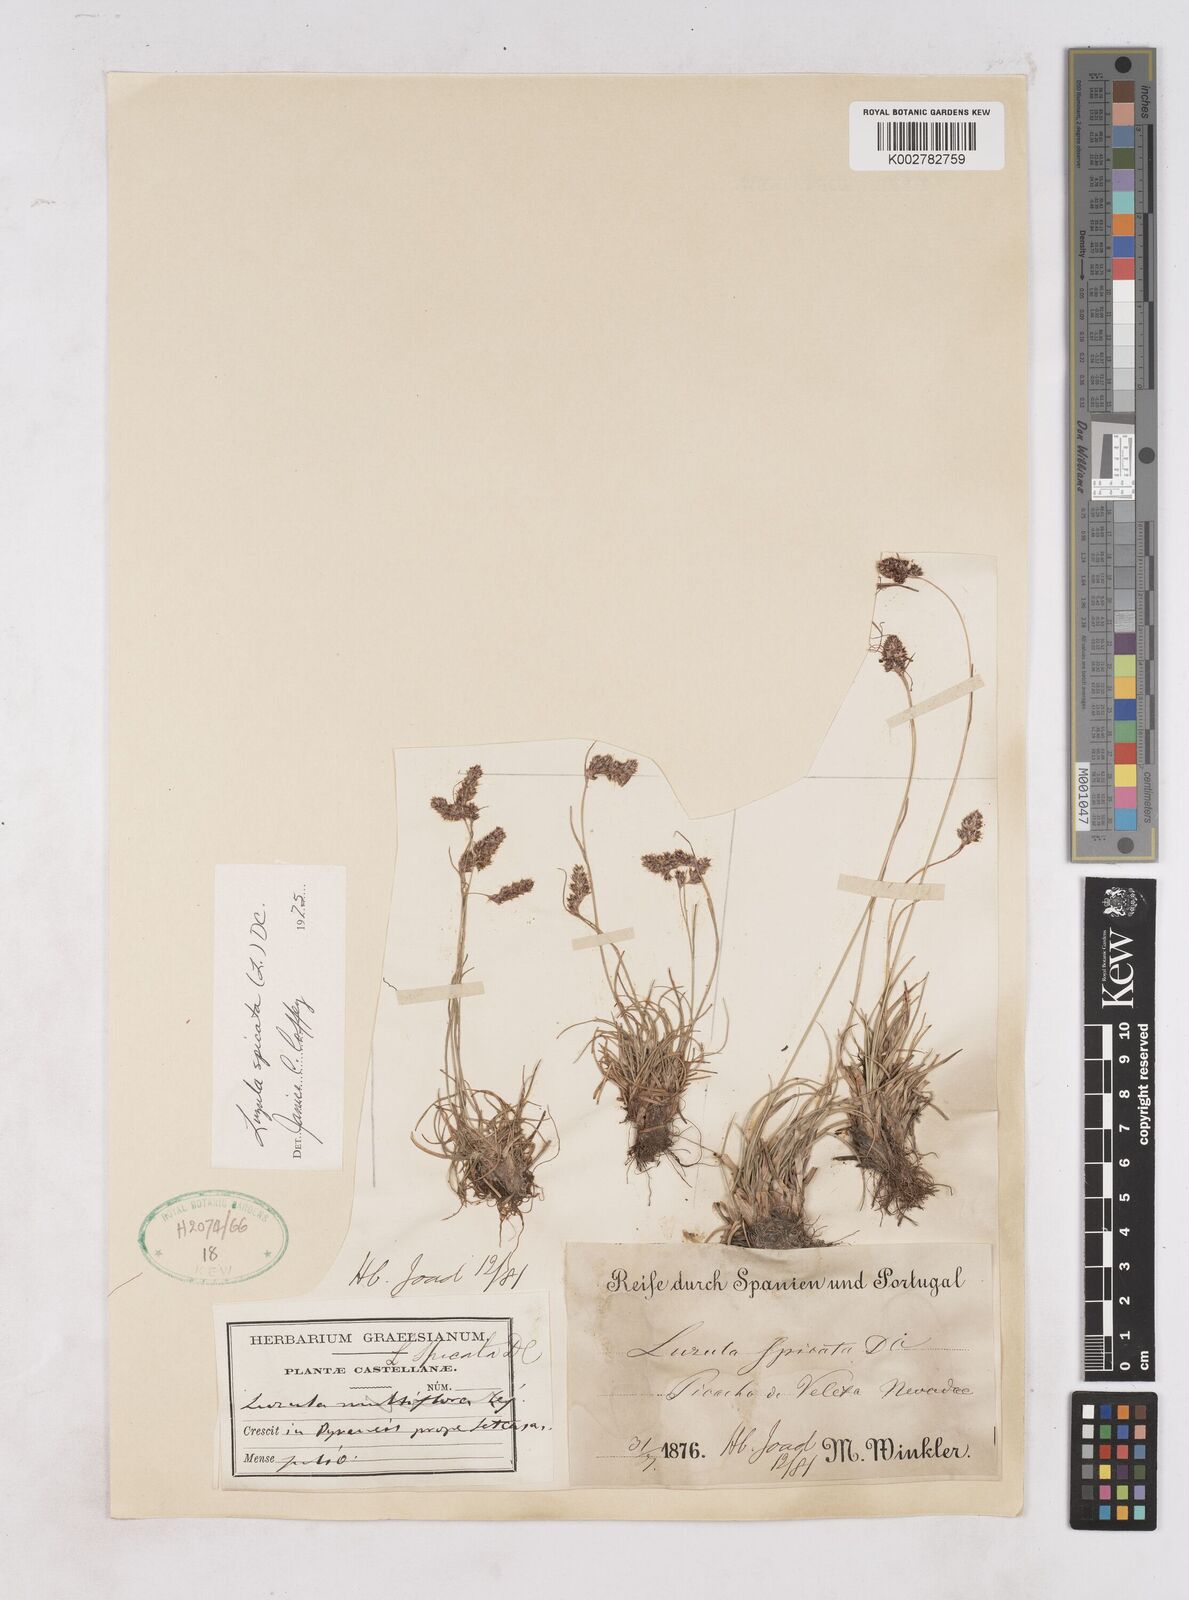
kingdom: Plantae
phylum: Tracheophyta
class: Liliopsida
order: Poales
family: Juncaceae
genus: Luzula
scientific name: Luzula spicata
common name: Spiked wood-rush
